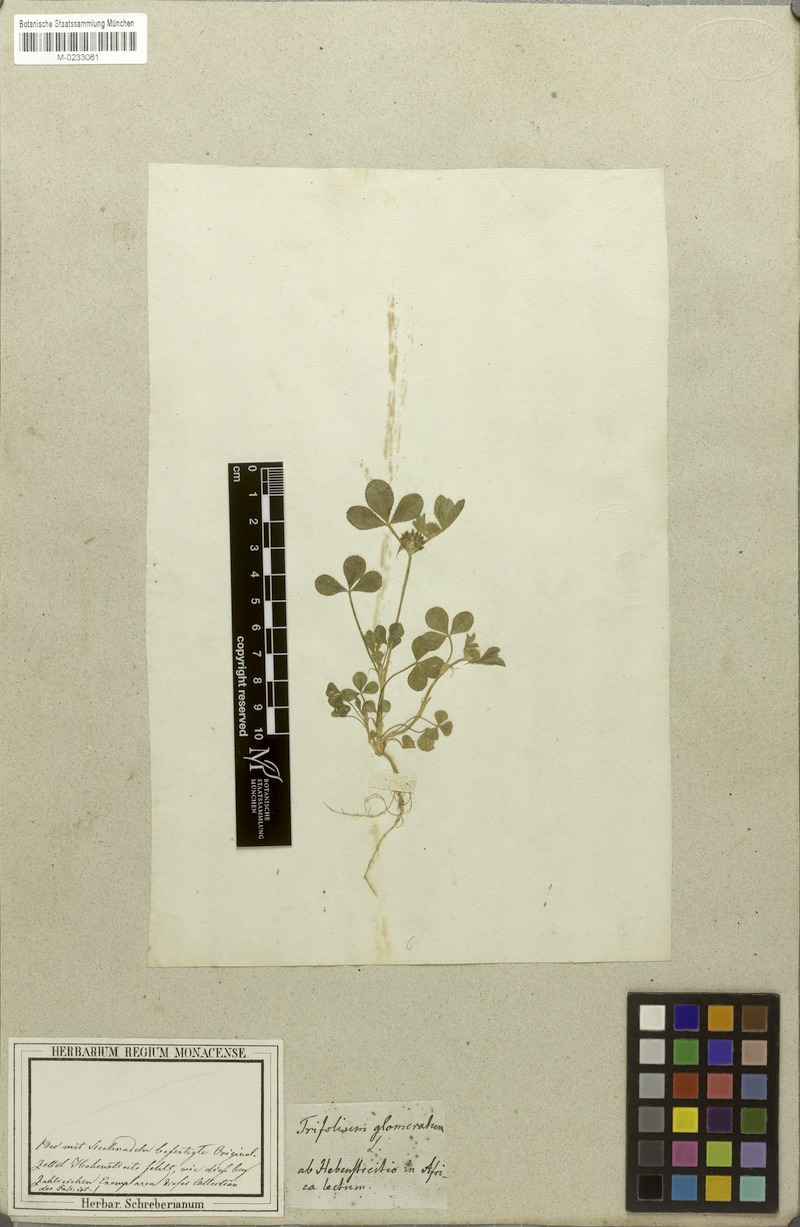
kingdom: Plantae
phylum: Tracheophyta
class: Magnoliopsida
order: Fabales
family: Fabaceae
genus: Trifolium
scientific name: Trifolium glomeratum
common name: Clustered clover
